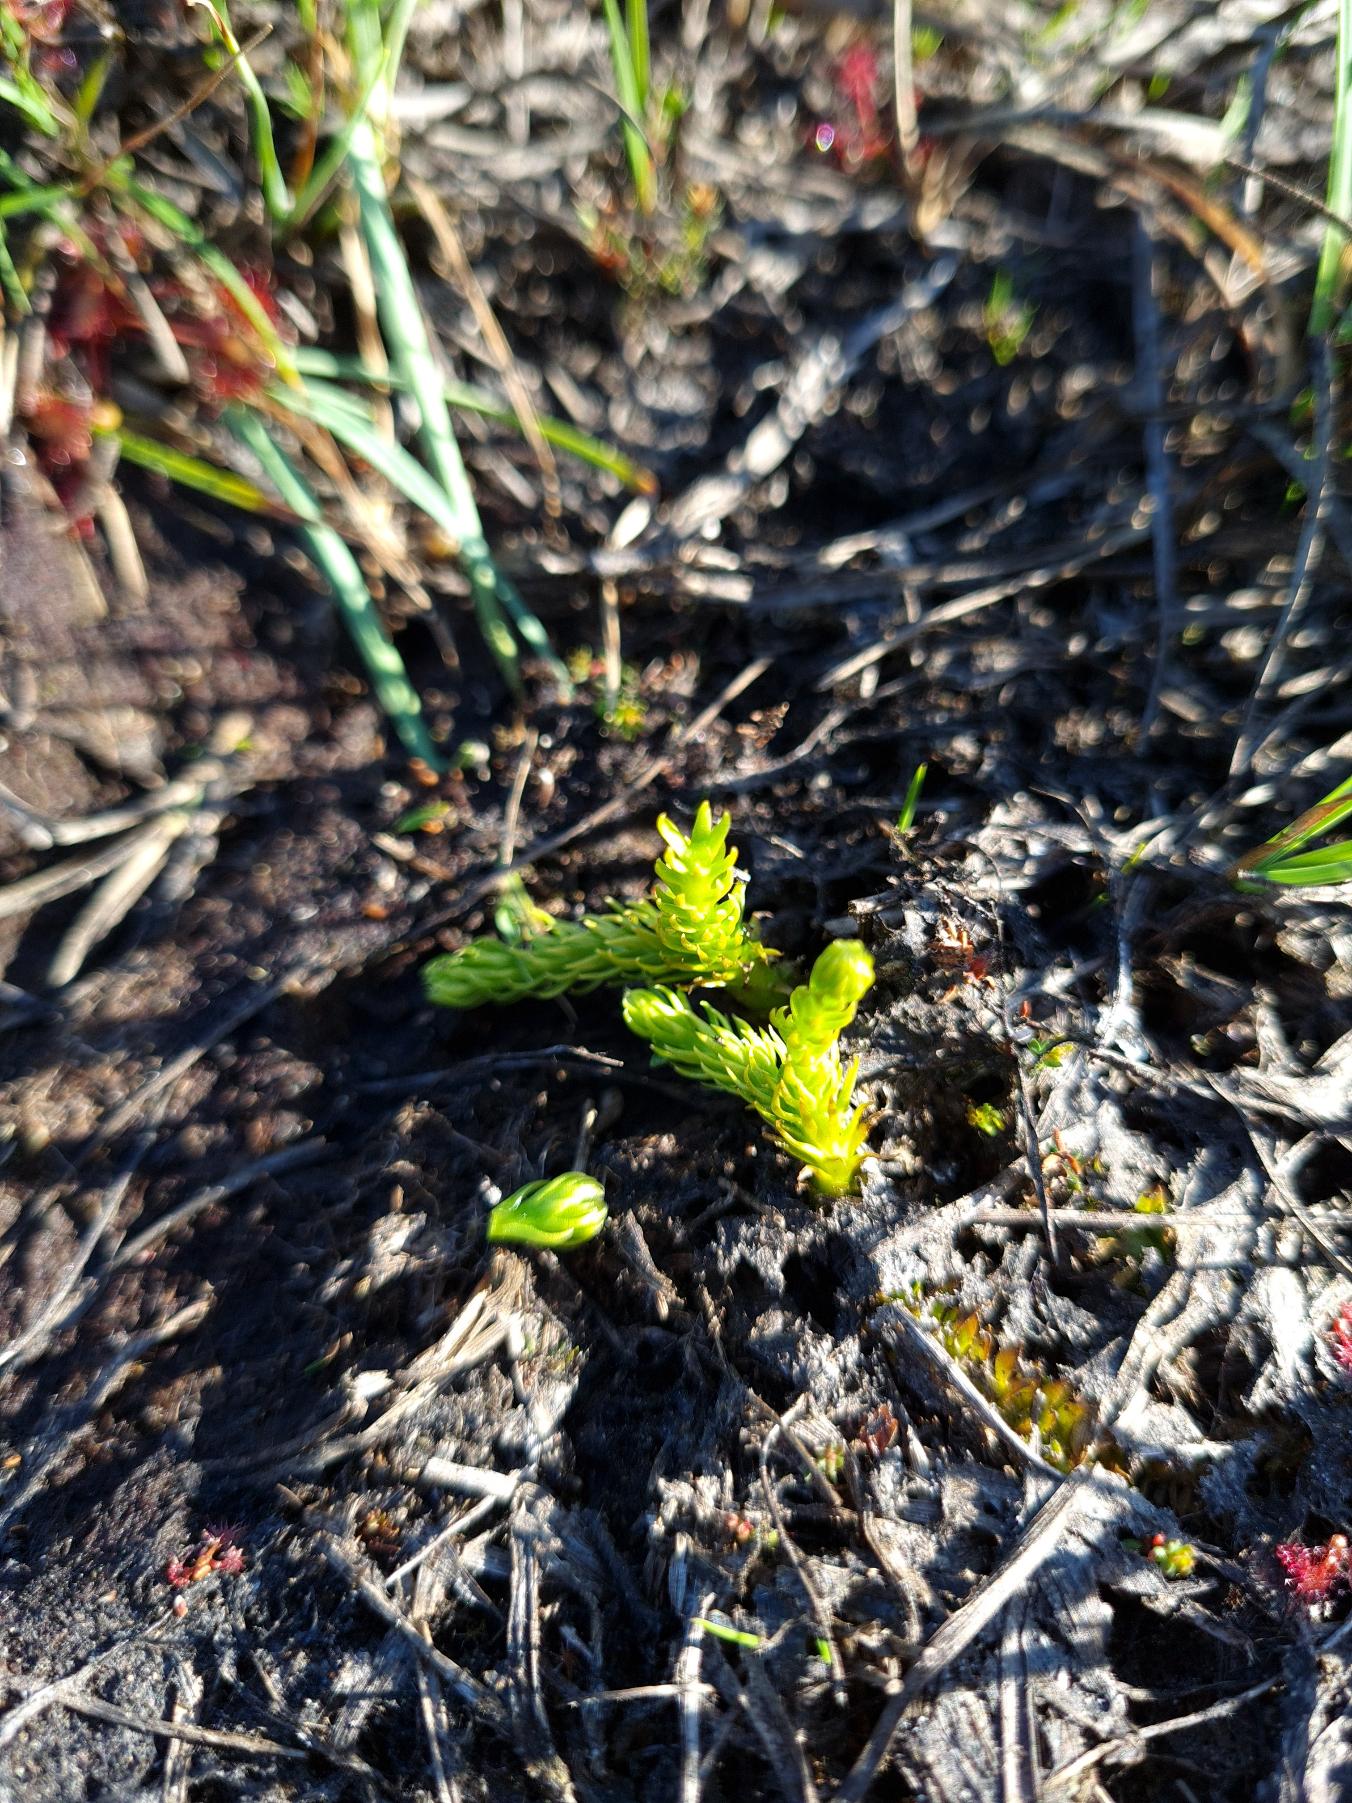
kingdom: Plantae
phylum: Tracheophyta
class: Lycopodiopsida
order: Lycopodiales
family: Lycopodiaceae
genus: Lycopodiella
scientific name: Lycopodiella inundata
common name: Liden ulvefod
